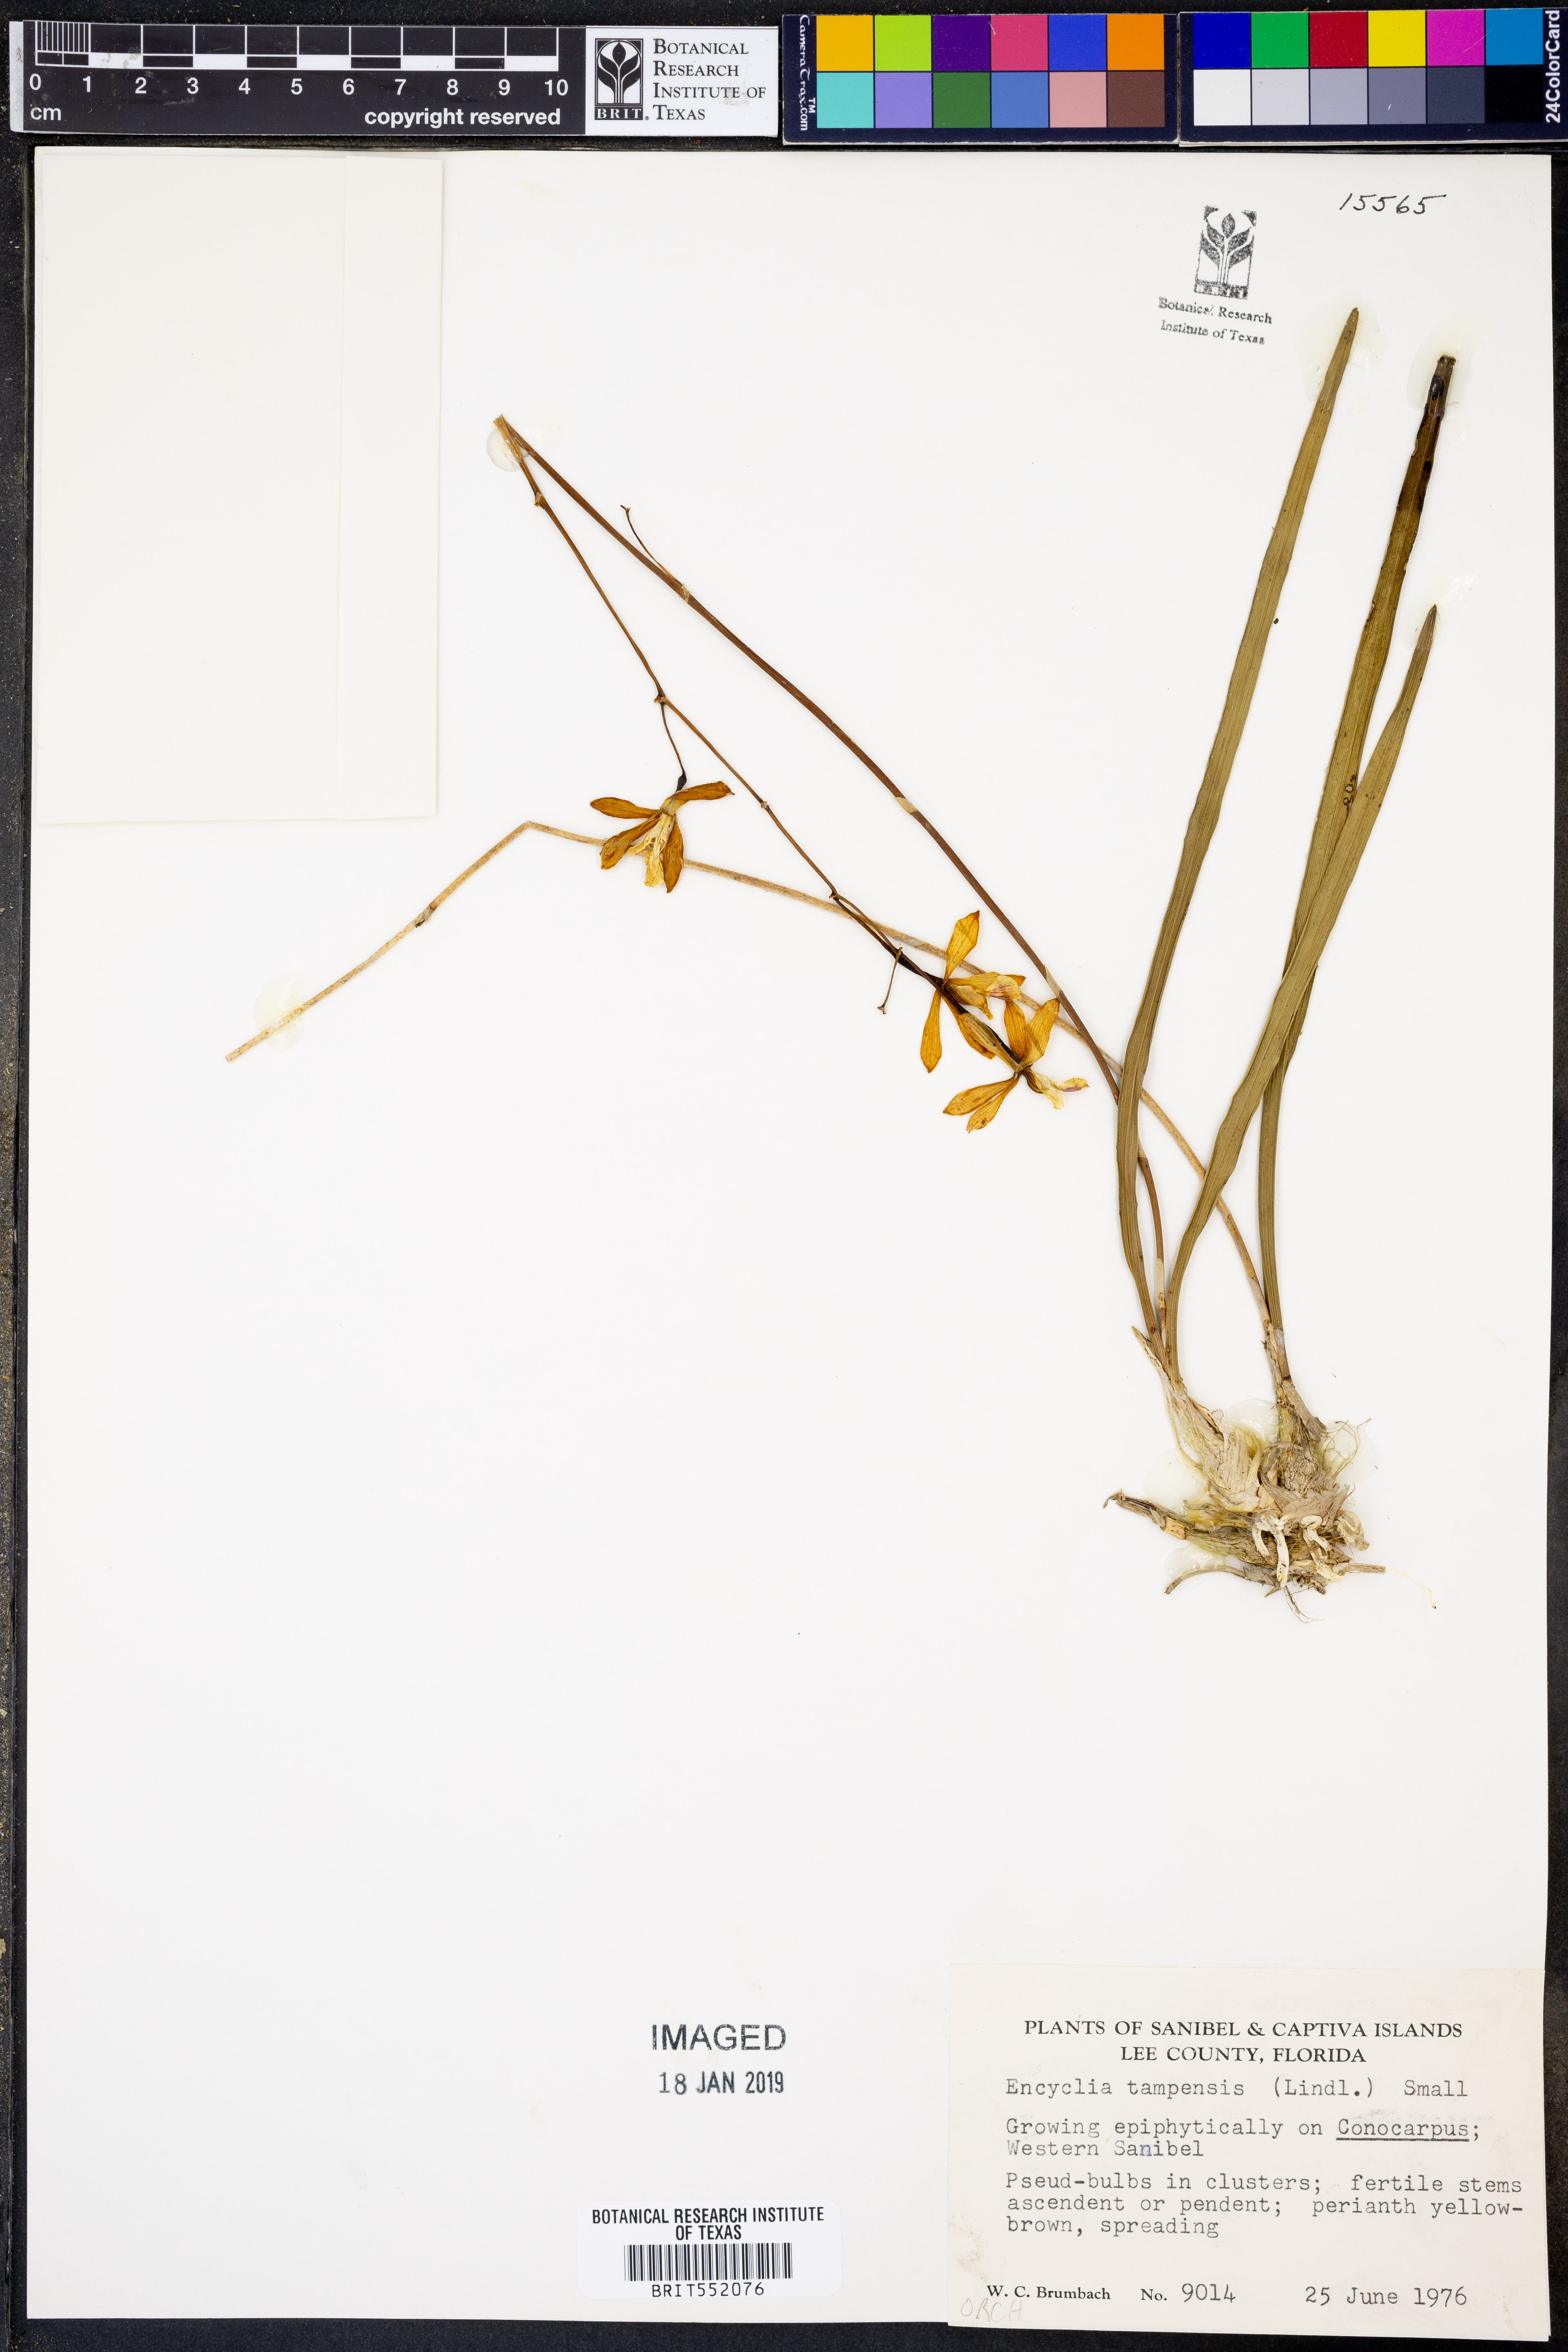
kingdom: Plantae
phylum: Tracheophyta
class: Liliopsida
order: Asparagales
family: Orchidaceae
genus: Encyclia
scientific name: Encyclia tampensis
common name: Florida butterfly orchid
